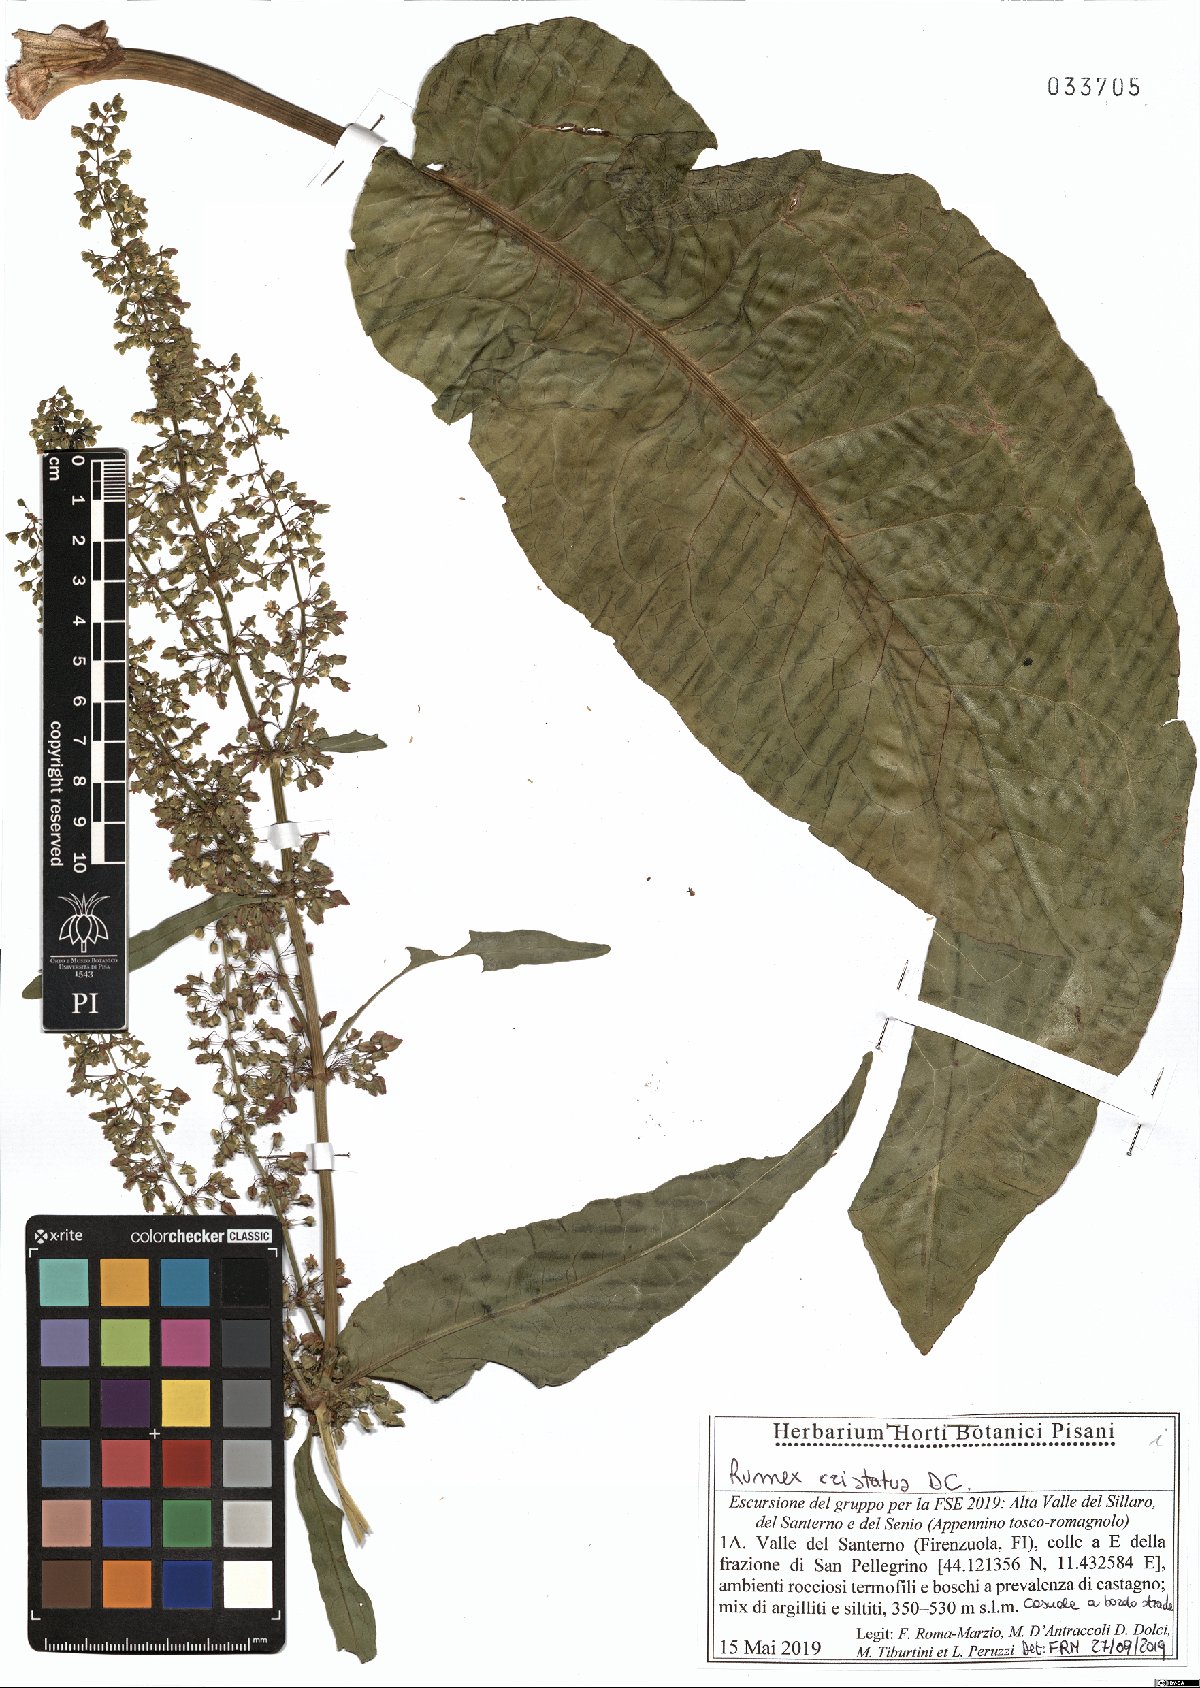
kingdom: Plantae
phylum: Tracheophyta
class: Magnoliopsida
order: Caryophyllales
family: Polygonaceae
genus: Rumex
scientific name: Rumex cristatus
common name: Greek dock
